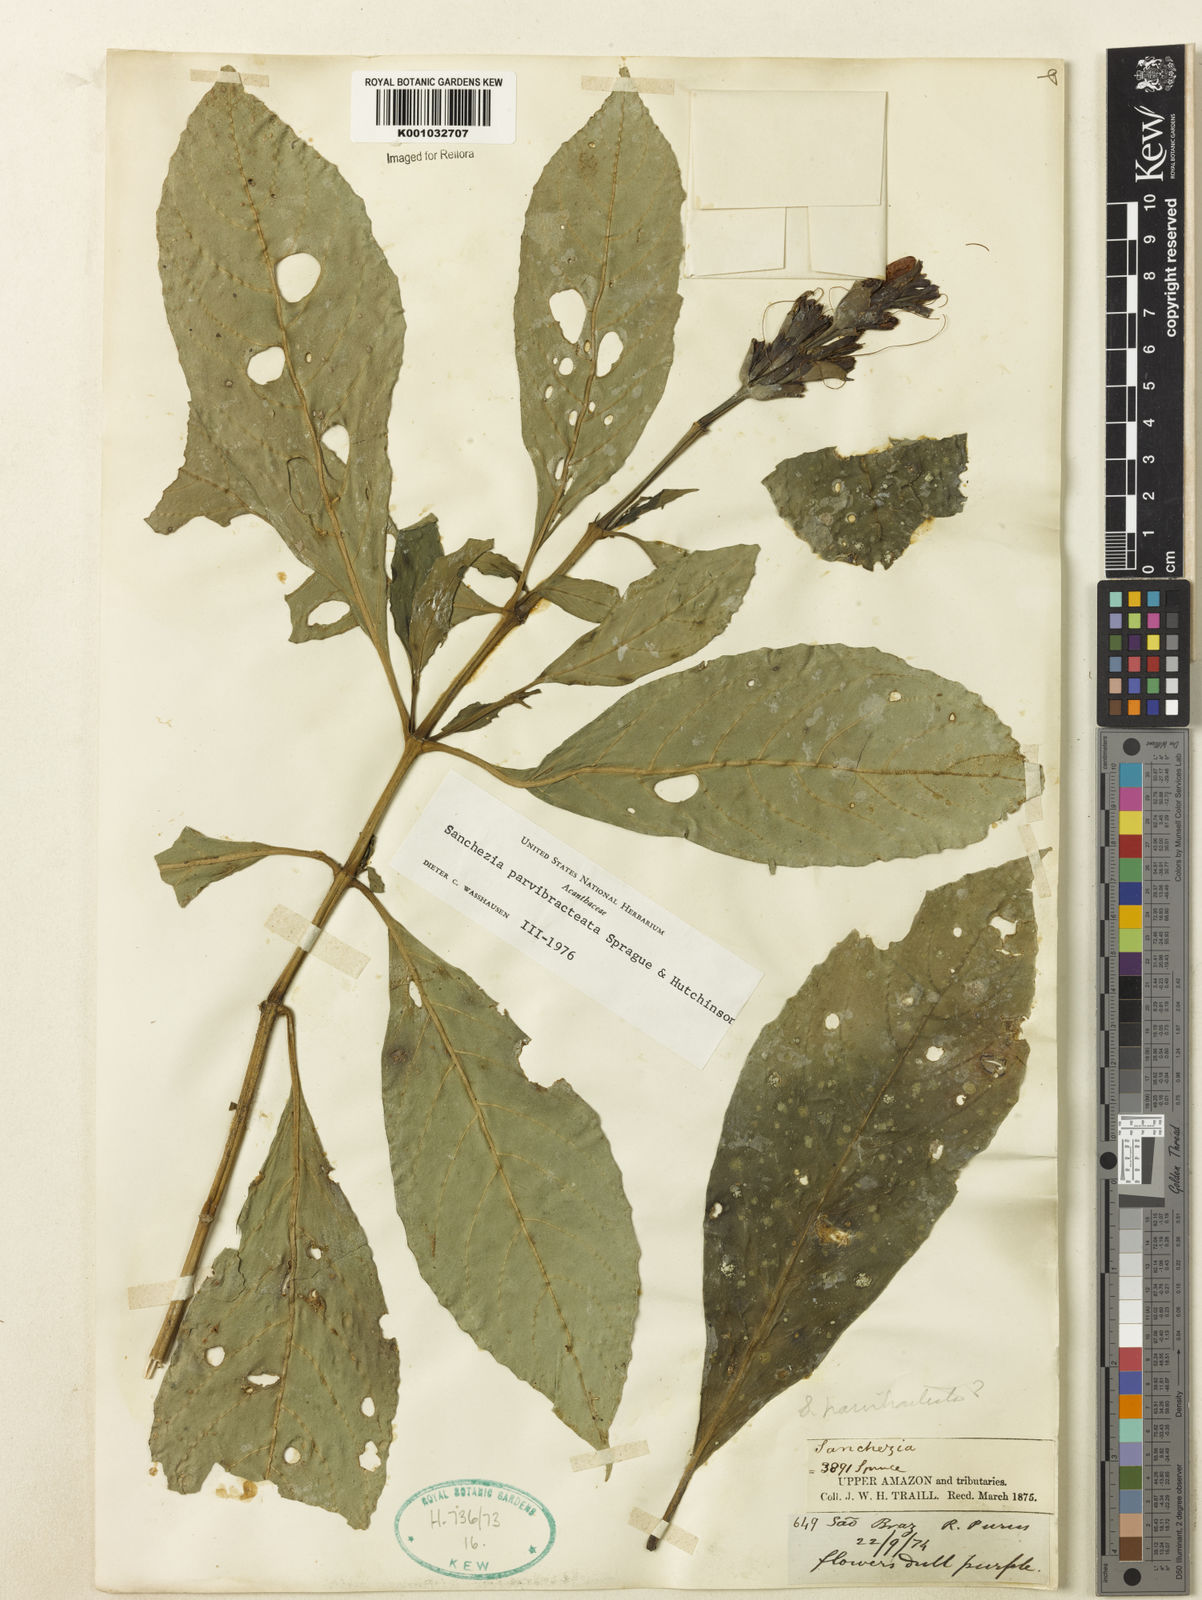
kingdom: Plantae
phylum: Tracheophyta
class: Magnoliopsida
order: Lamiales
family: Acanthaceae
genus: Sanchezia
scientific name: Sanchezia parvibracteata
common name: Sanchezia
